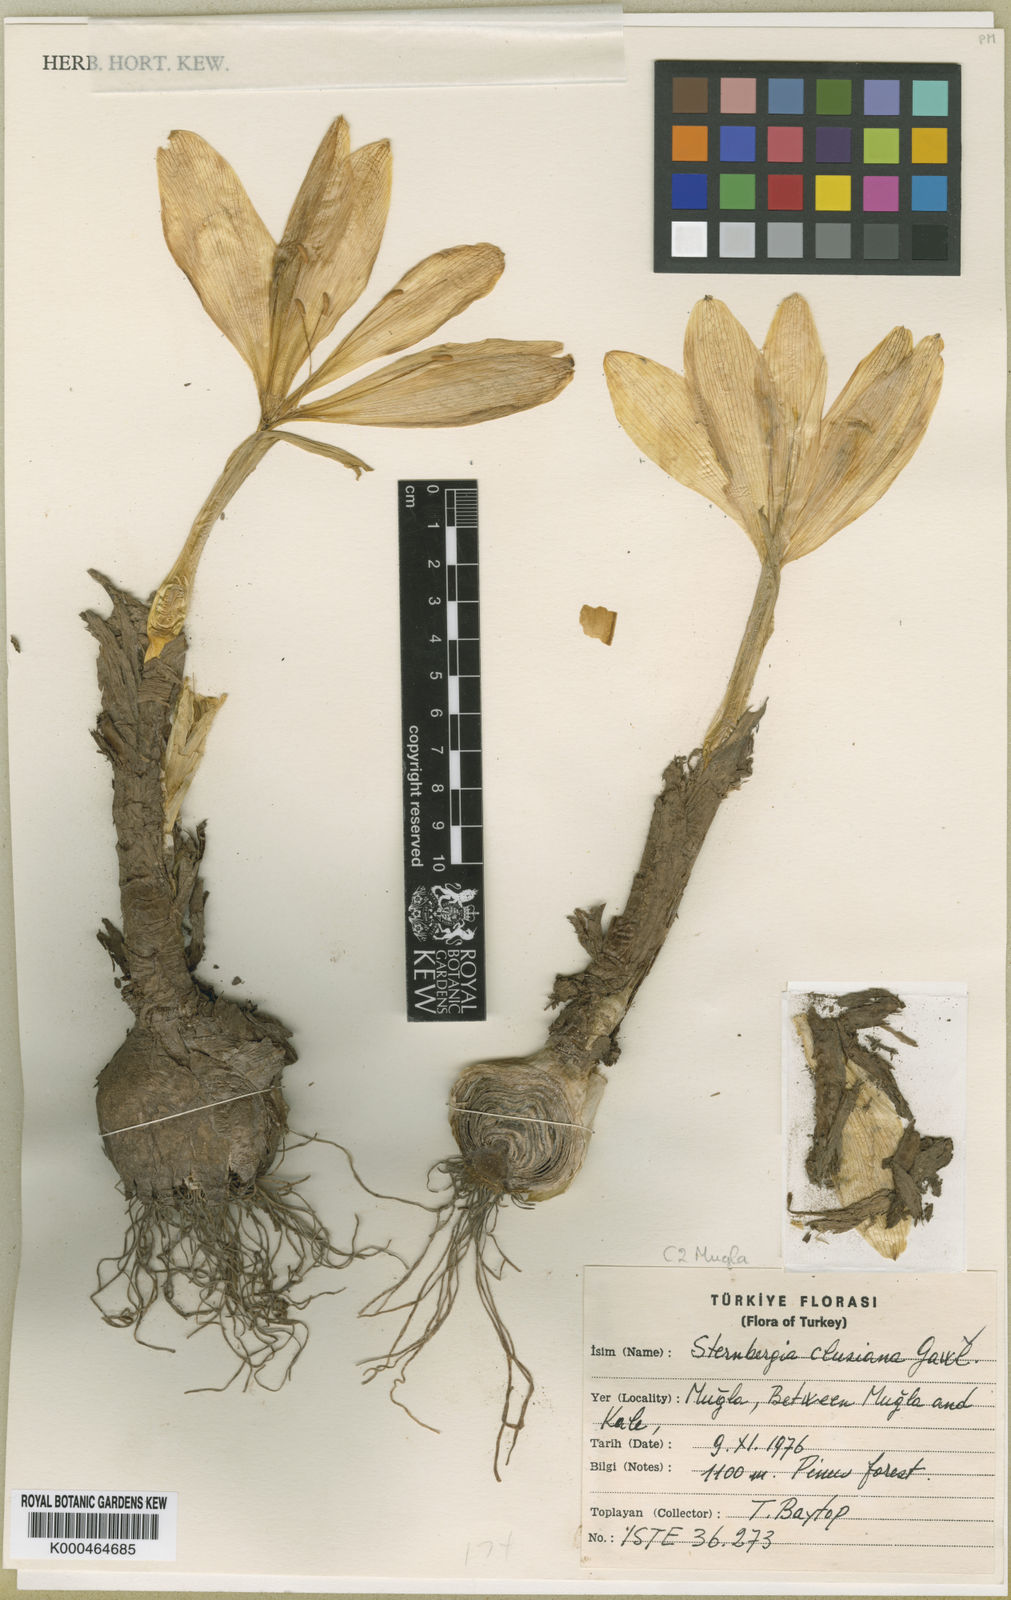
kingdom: Plantae
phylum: Tracheophyta
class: Liliopsida
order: Asparagales
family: Amaryllidaceae
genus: Sternbergia
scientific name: Sternbergia
